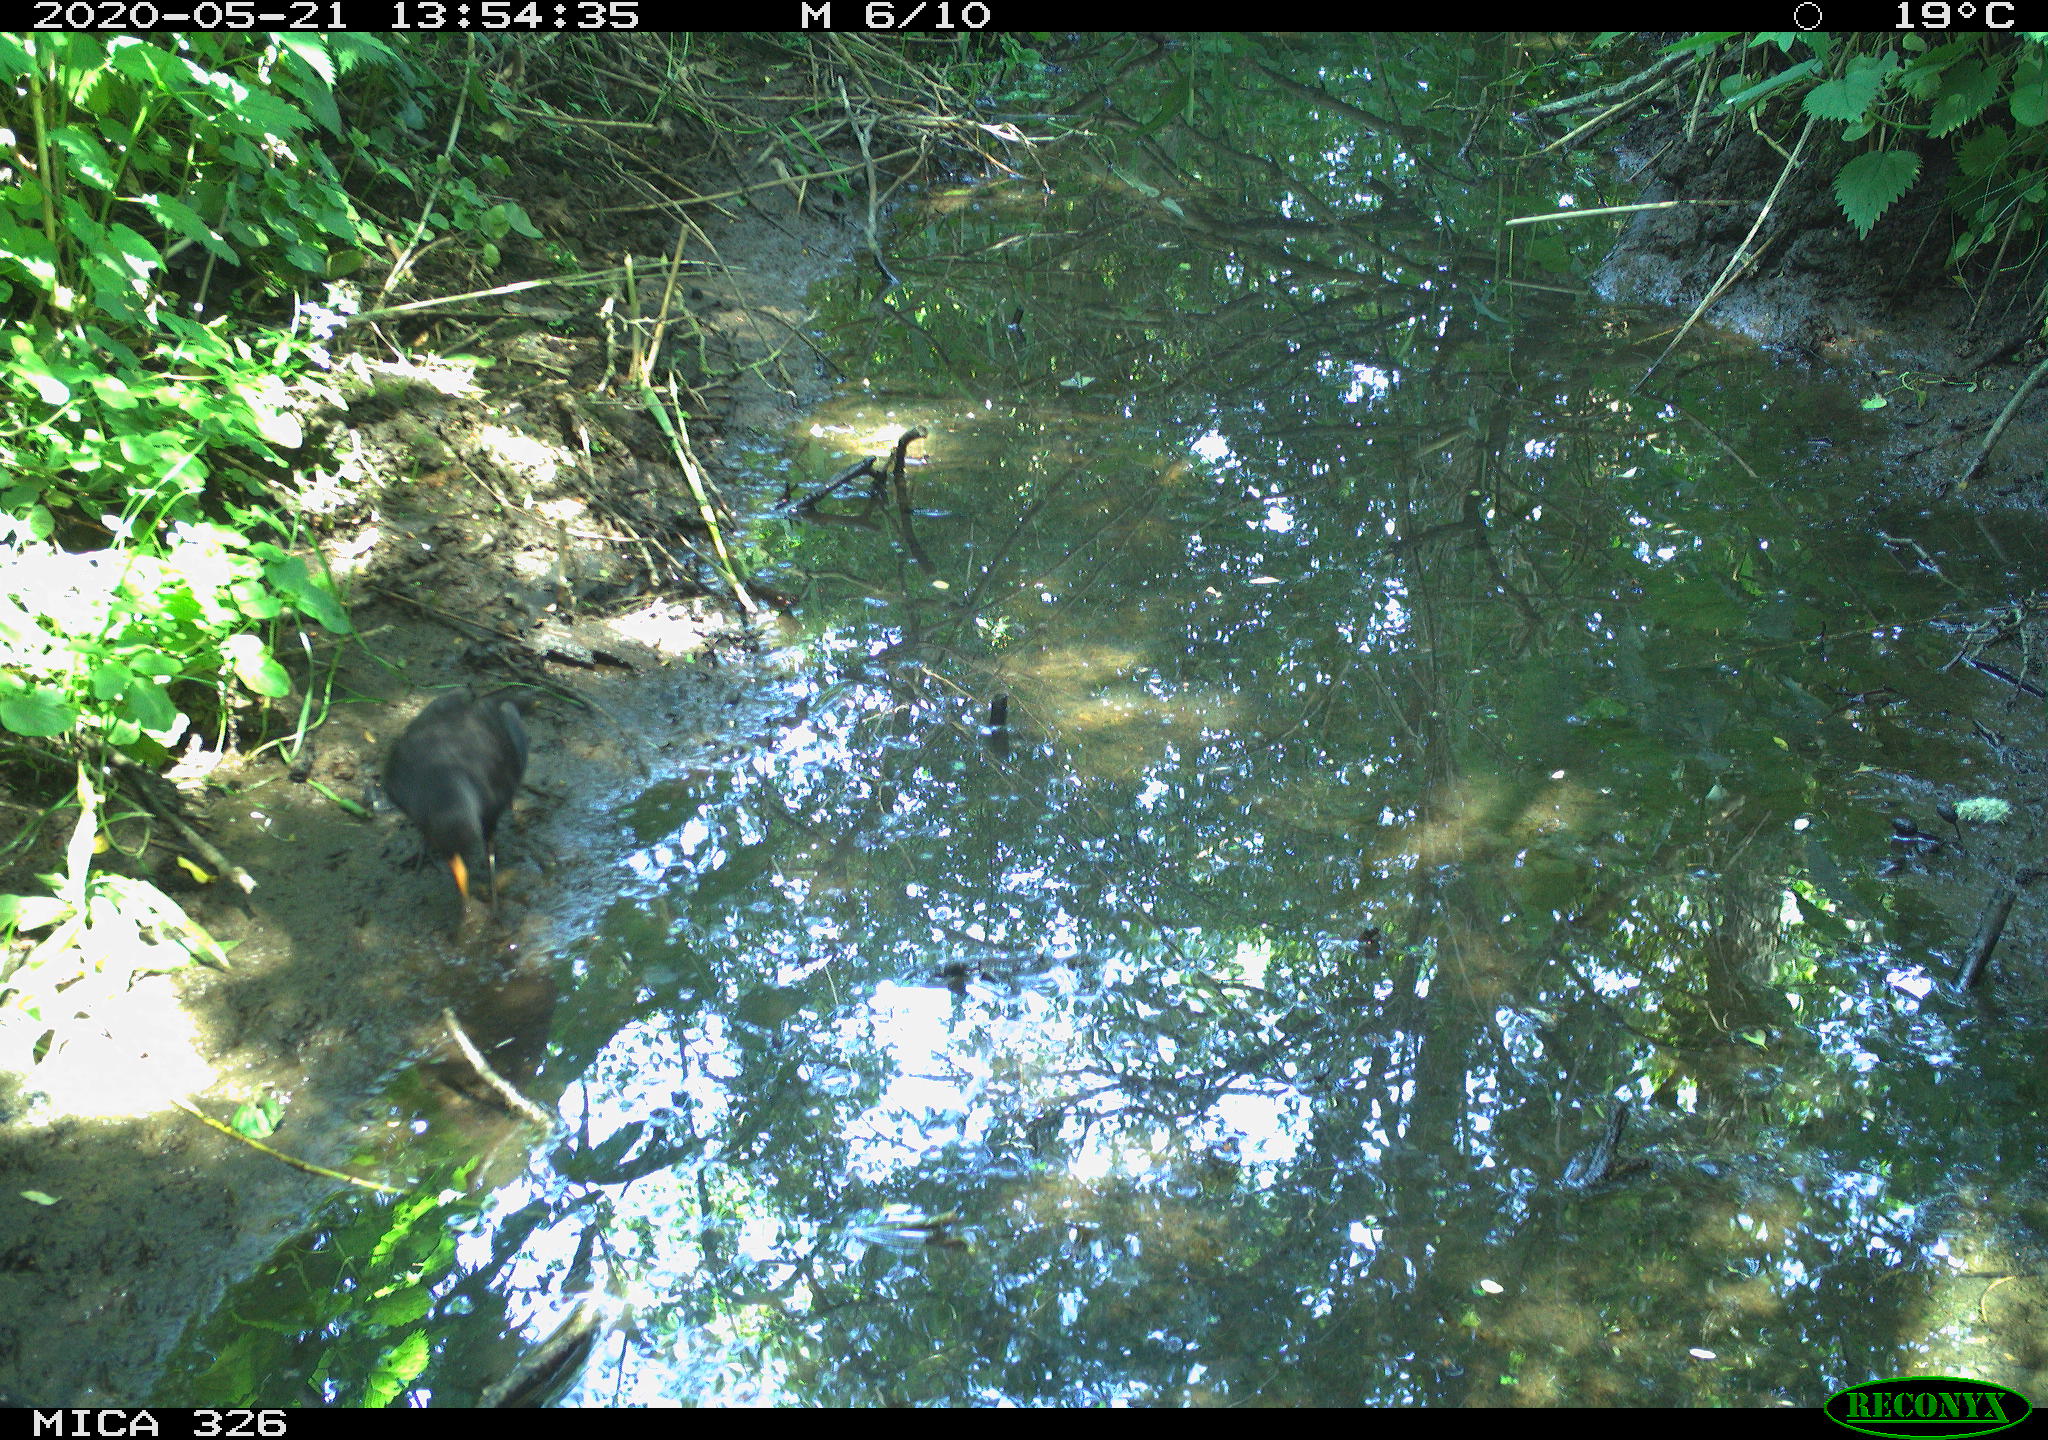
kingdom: Animalia
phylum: Chordata
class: Aves
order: Passeriformes
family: Turdidae
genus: Turdus
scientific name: Turdus merula
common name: Common blackbird
